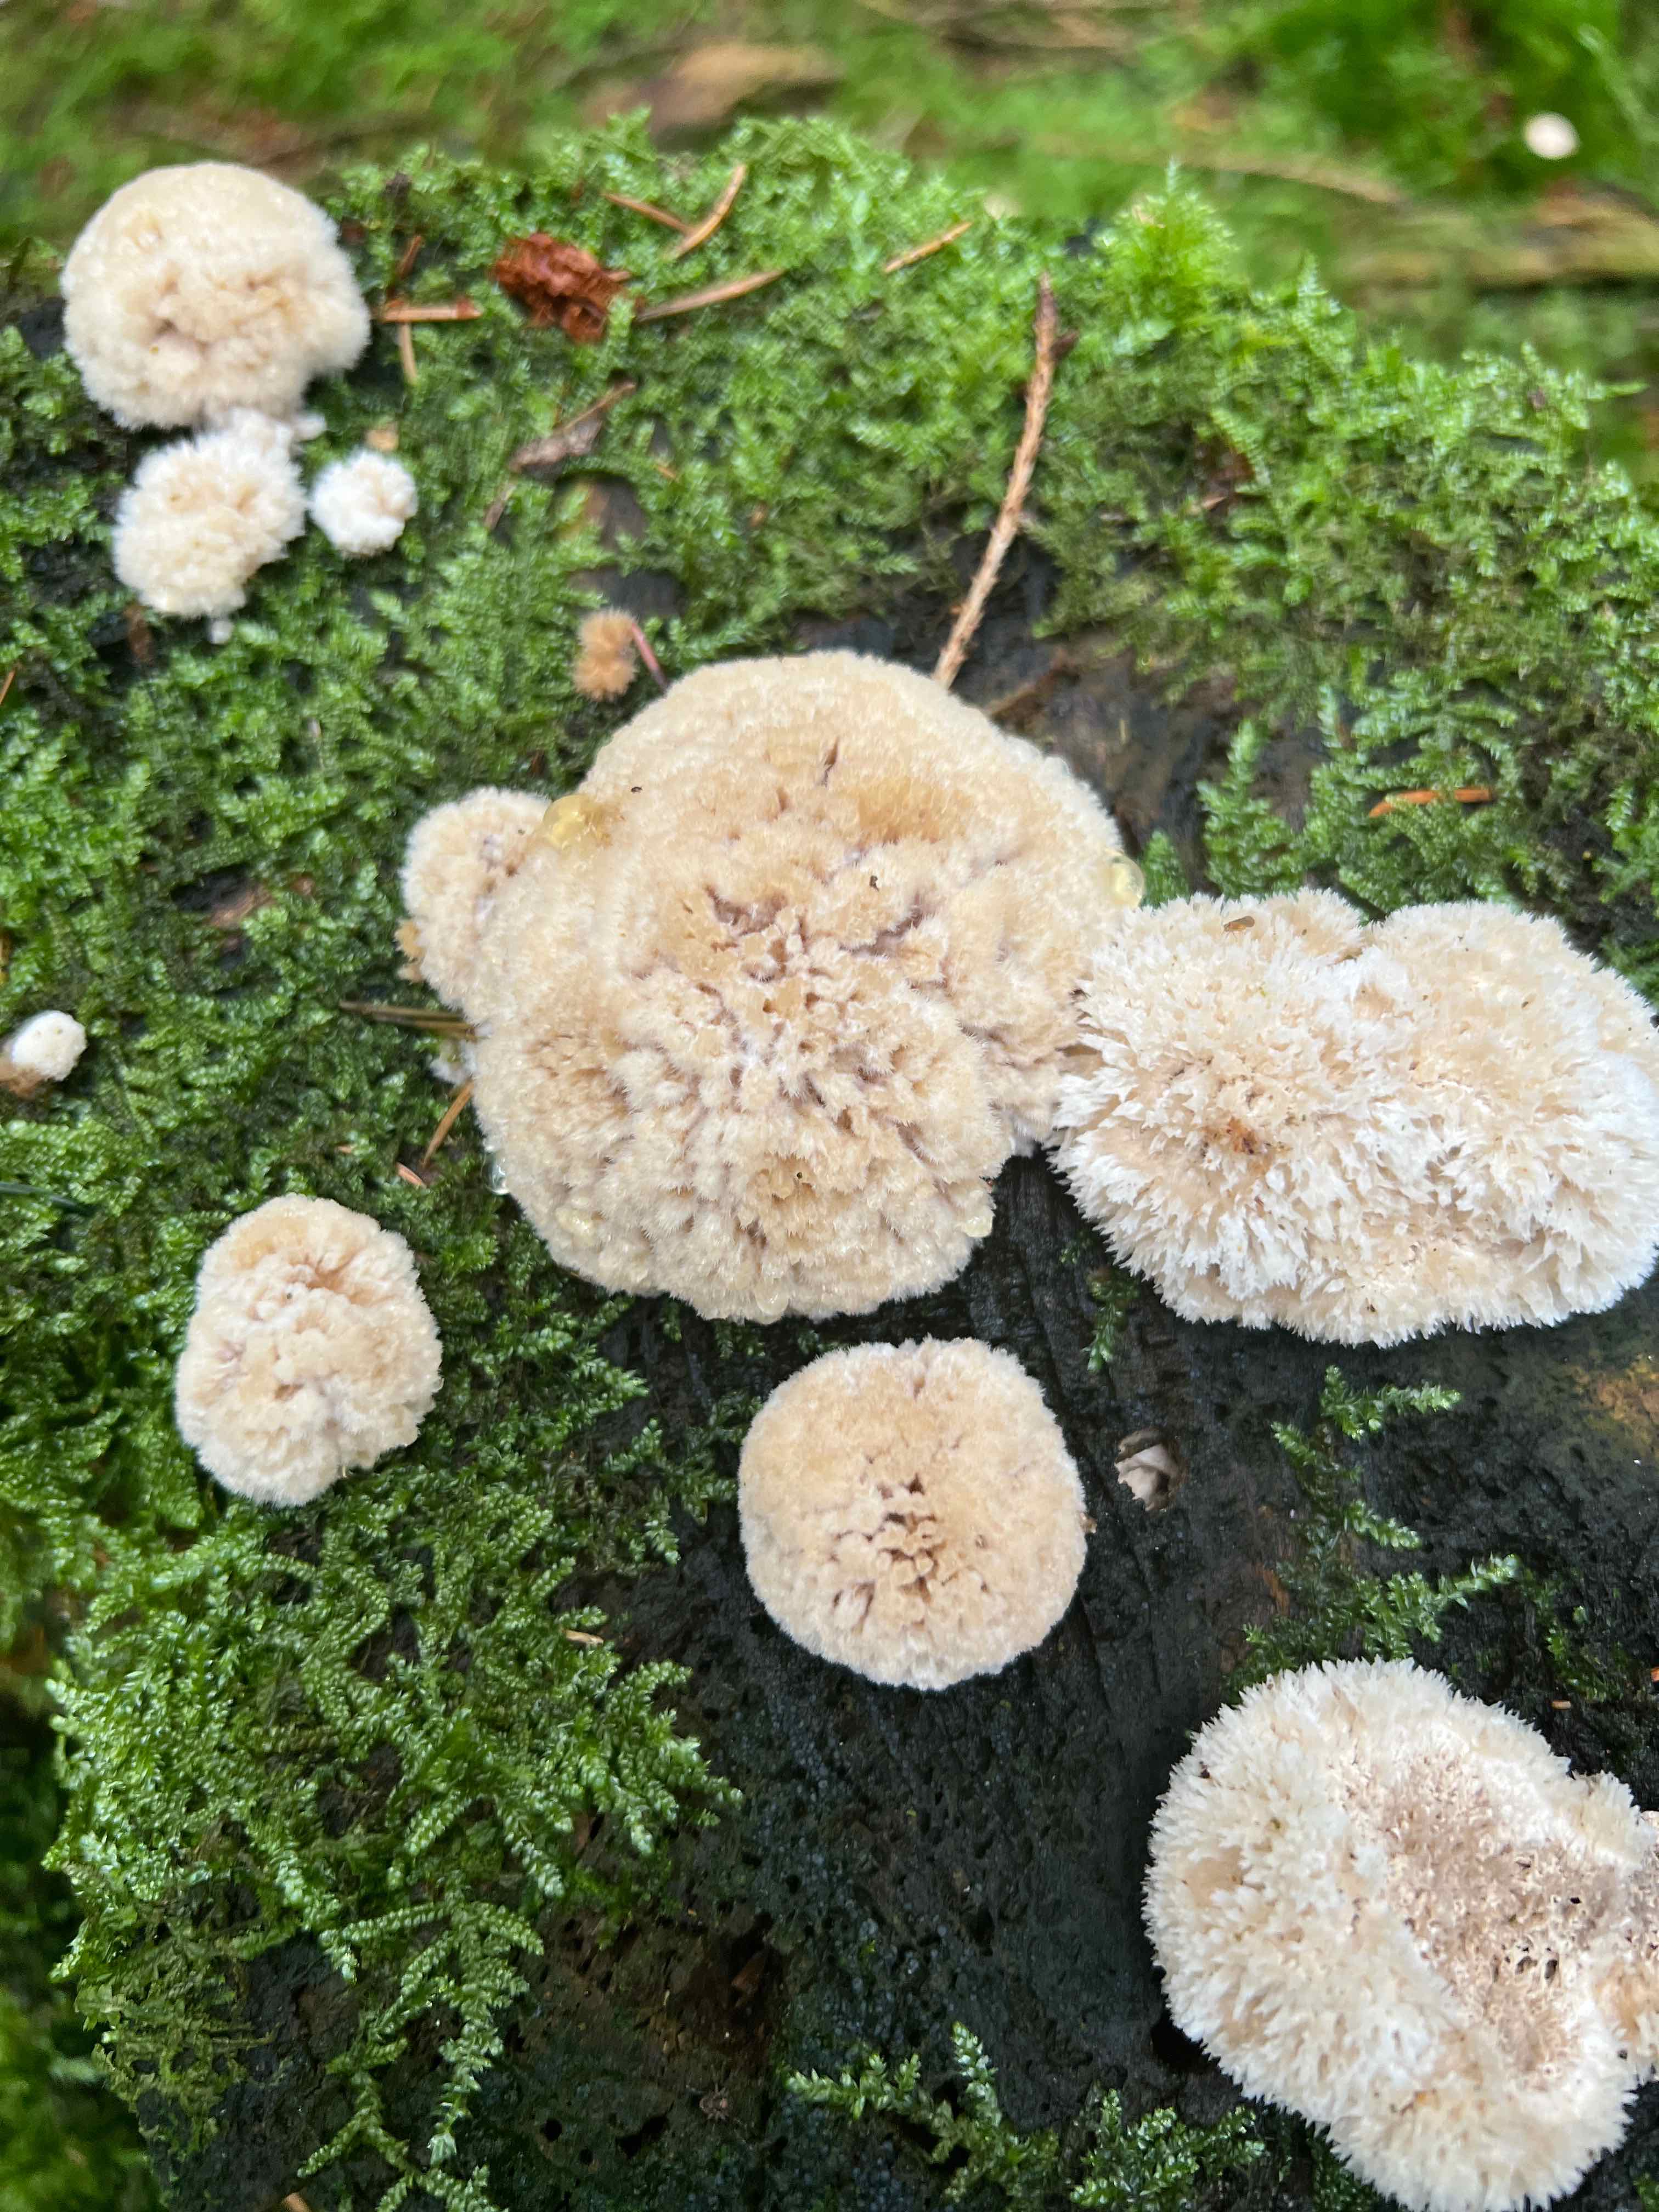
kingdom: Fungi
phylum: Basidiomycota
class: Agaricomycetes
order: Polyporales
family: Dacryobolaceae
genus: Postia
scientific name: Postia ptychogaster
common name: støvende kødporesvamp
